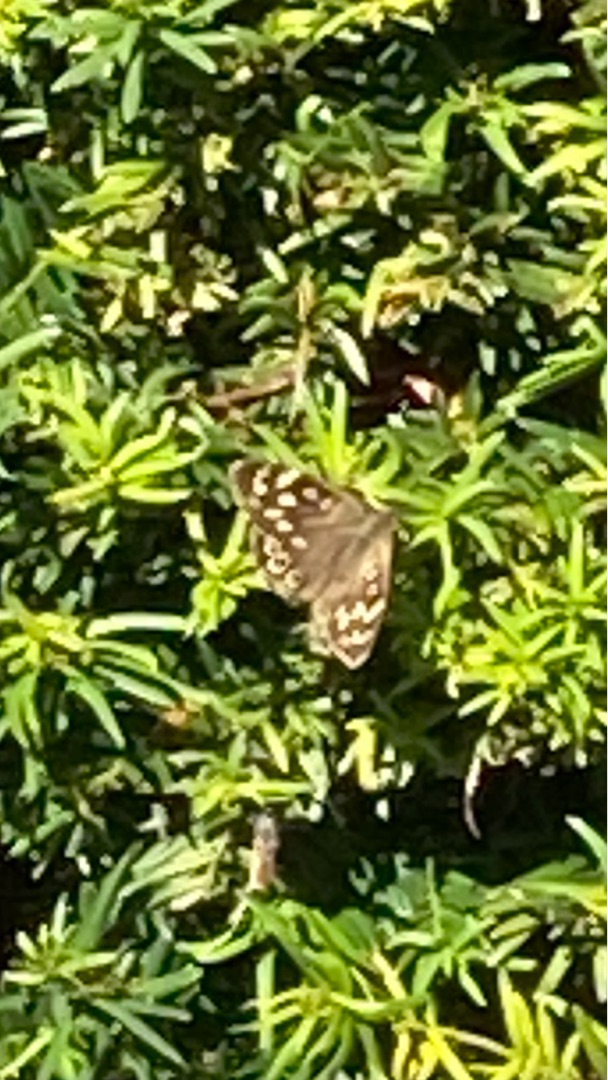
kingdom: Animalia
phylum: Arthropoda
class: Insecta
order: Lepidoptera
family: Nymphalidae
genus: Pararge
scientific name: Pararge aegeria
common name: Skovrandøje
